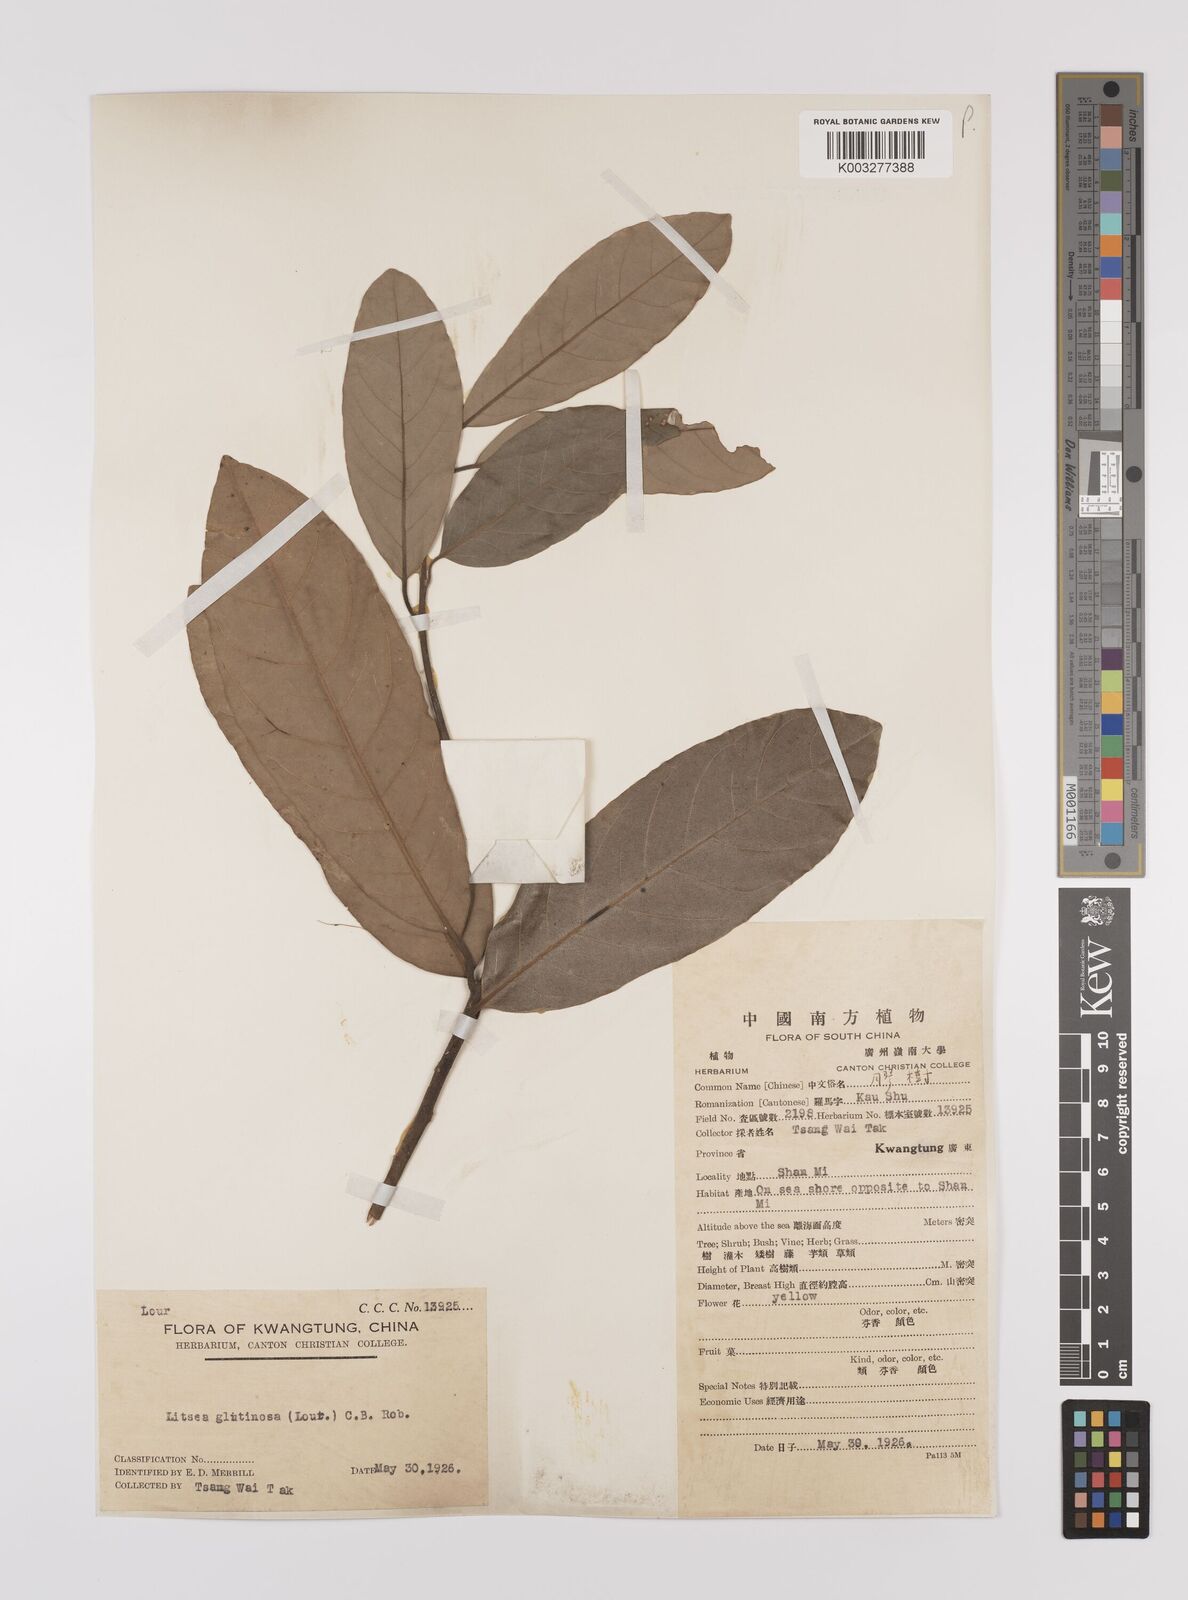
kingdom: Plantae
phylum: Tracheophyta
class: Magnoliopsida
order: Laurales
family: Lauraceae
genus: Litsea
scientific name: Litsea glutinosa
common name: Indian-laurel
